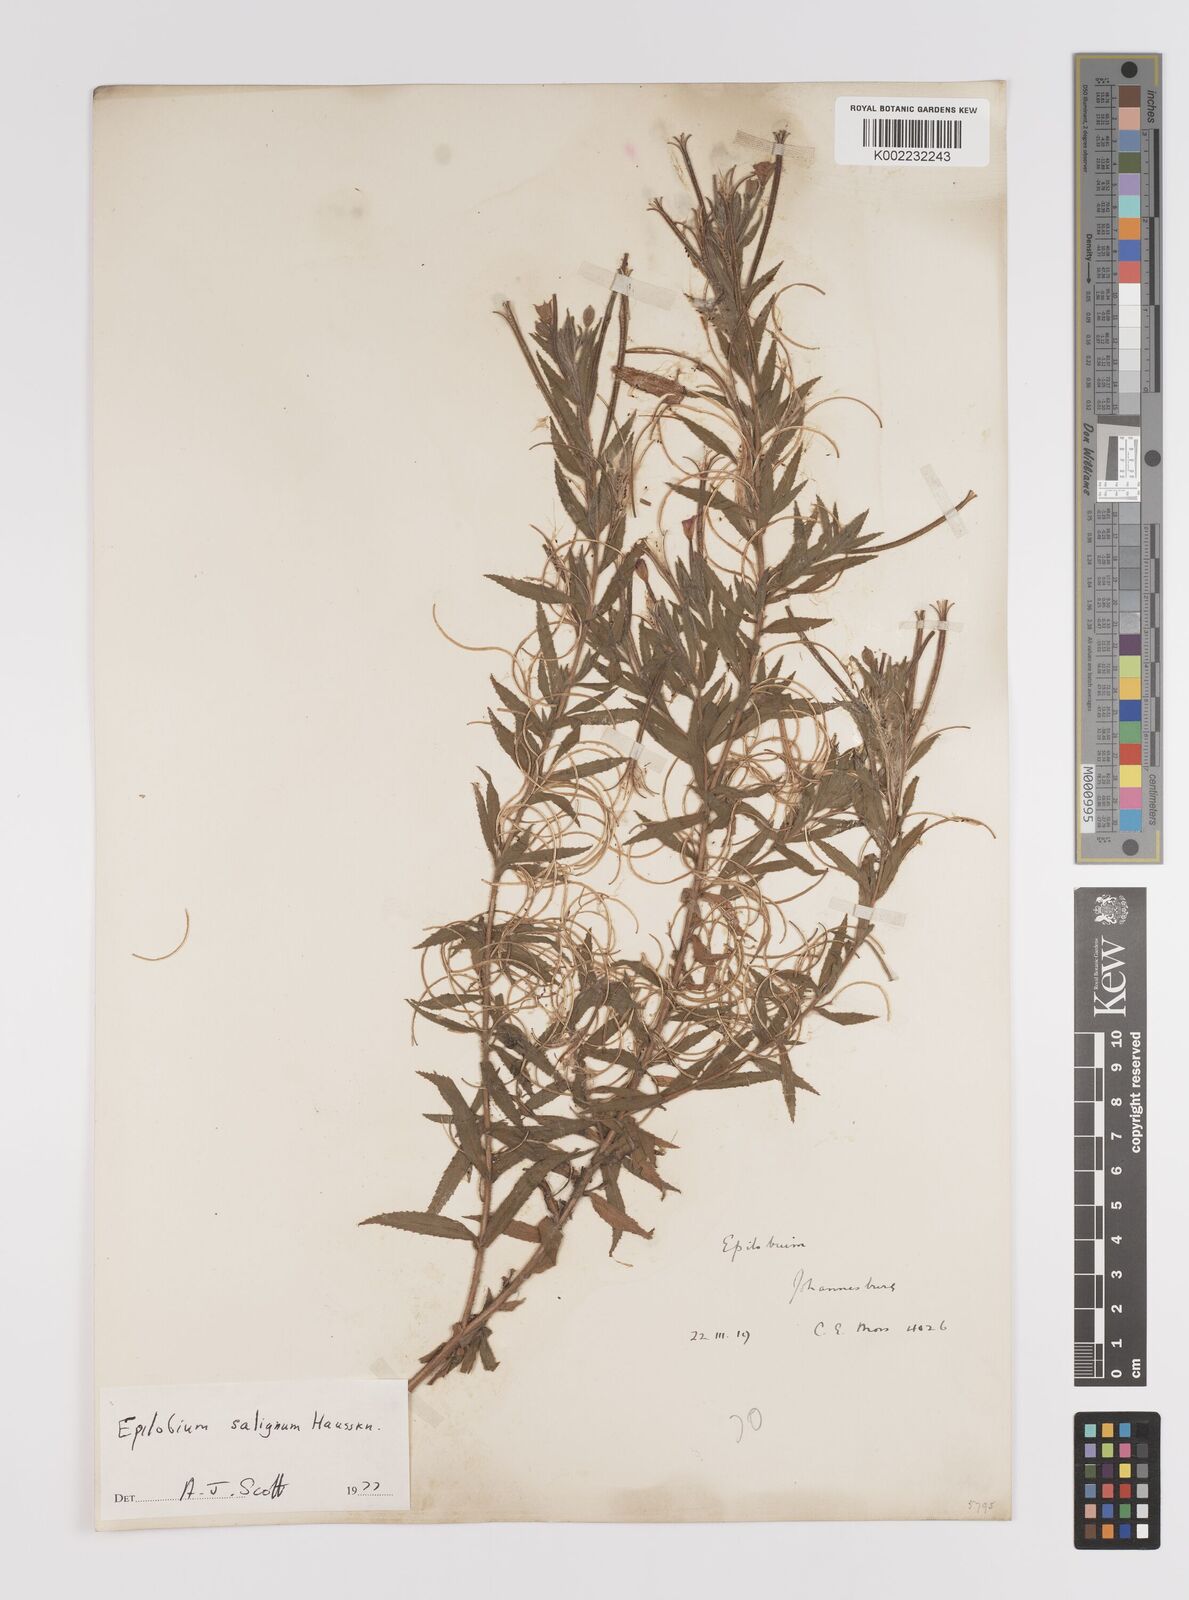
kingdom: Plantae
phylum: Tracheophyta
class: Magnoliopsida
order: Myrtales
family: Onagraceae
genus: Epilobium
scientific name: Epilobium salignum
